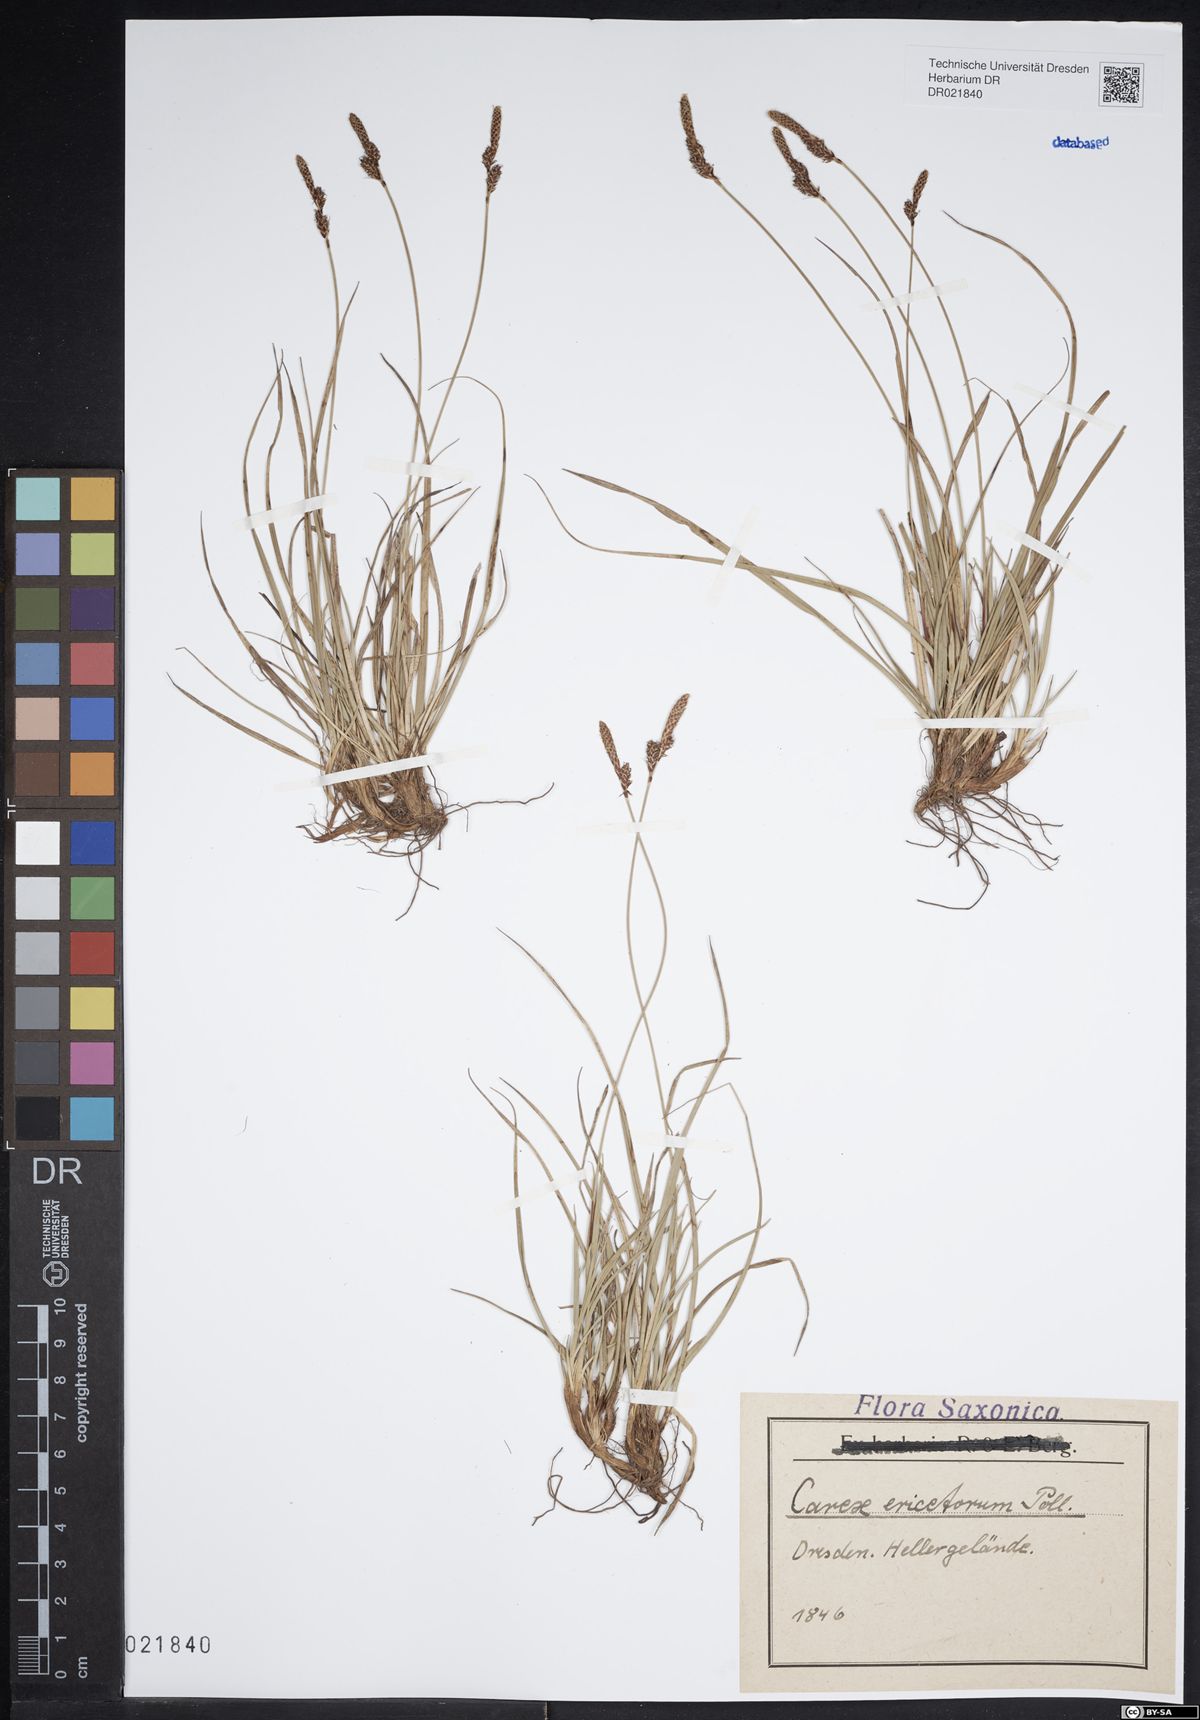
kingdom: Plantae
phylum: Tracheophyta
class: Liliopsida
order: Poales
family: Cyperaceae
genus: Carex
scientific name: Carex ericetorum
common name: Rare spring-sedge
